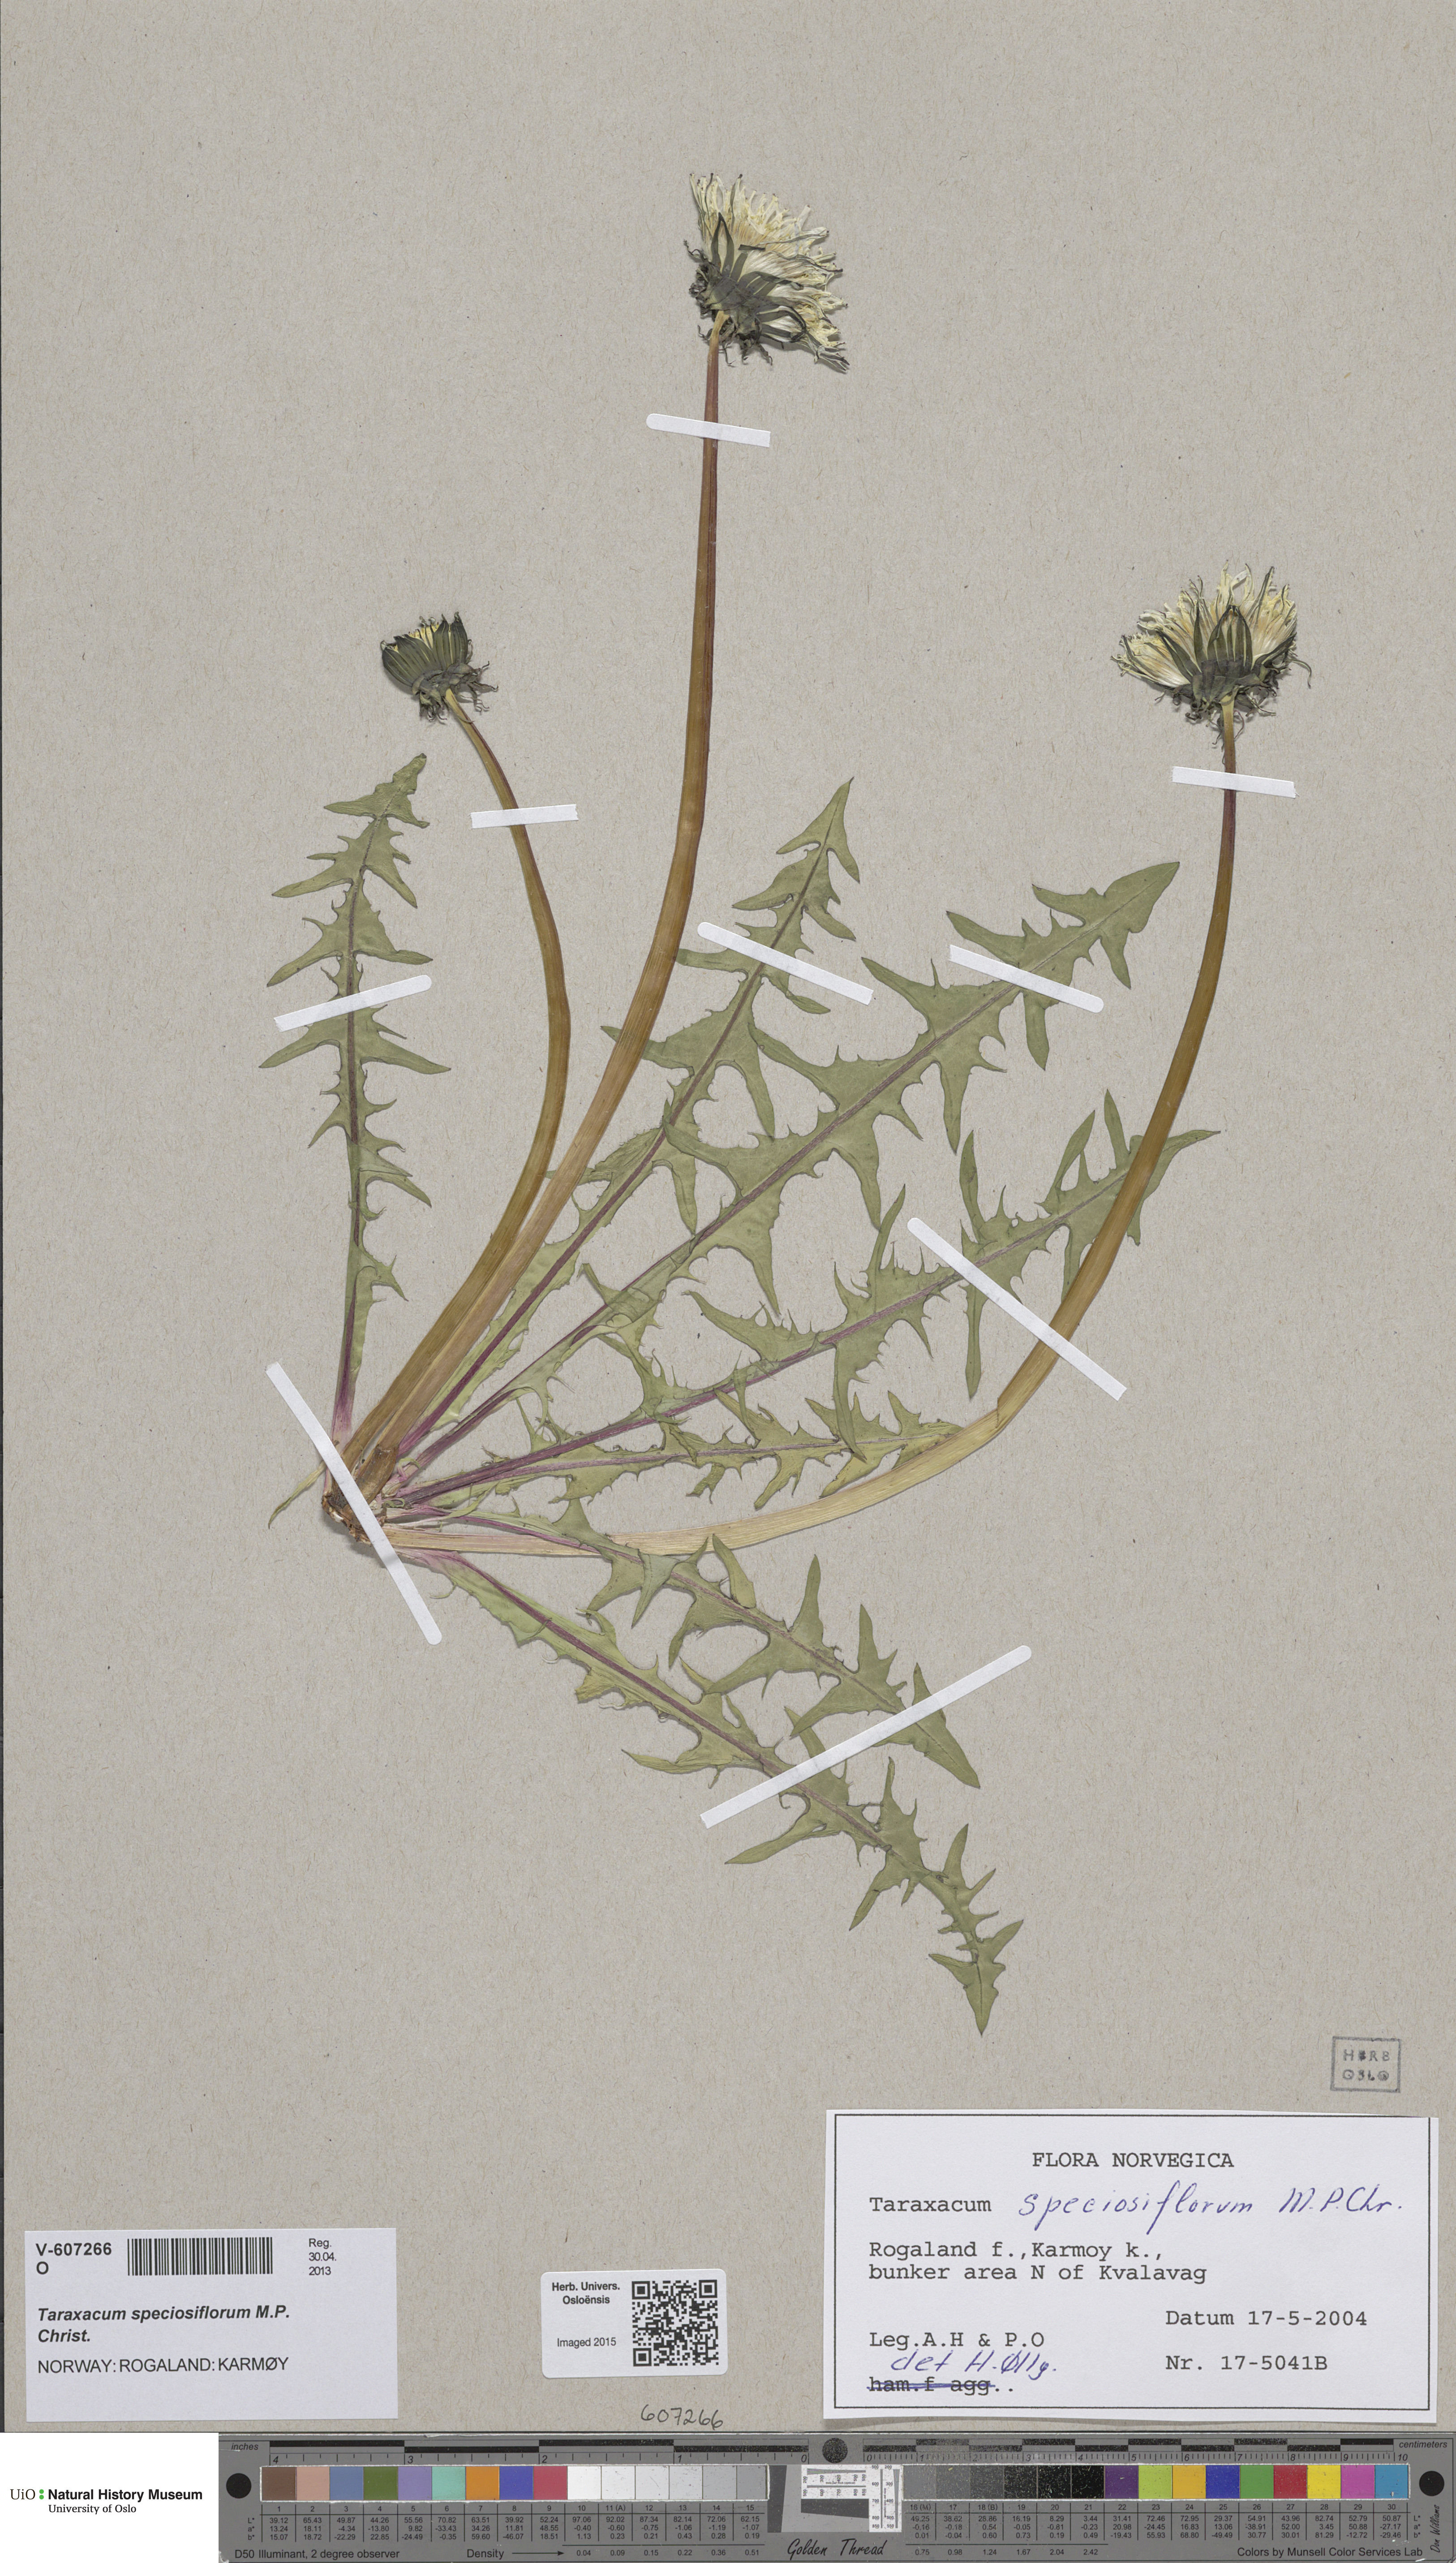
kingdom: Plantae
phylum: Tracheophyta
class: Magnoliopsida
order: Asterales
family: Asteraceae
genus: Taraxacum
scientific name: Taraxacum speciosiflorum
